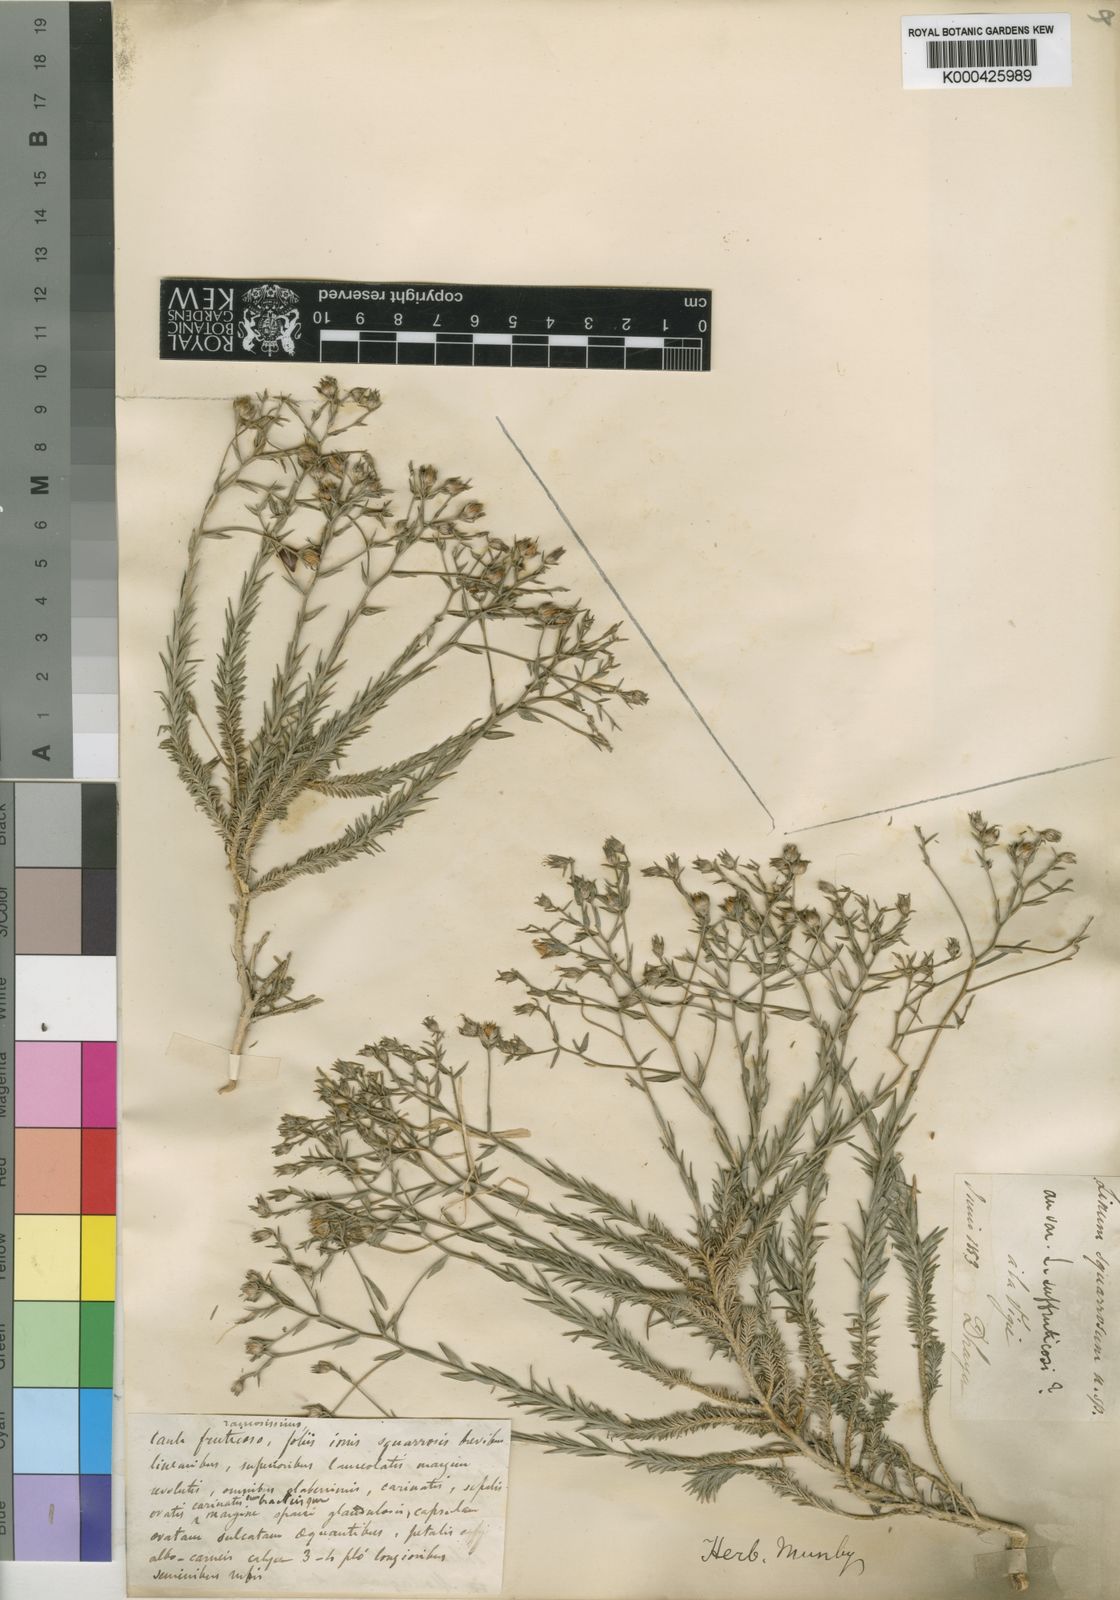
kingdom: Plantae
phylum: Tracheophyta
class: Magnoliopsida
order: Malpighiales
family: Linaceae
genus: Linum
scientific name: Linum suffruticosum
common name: White flax
